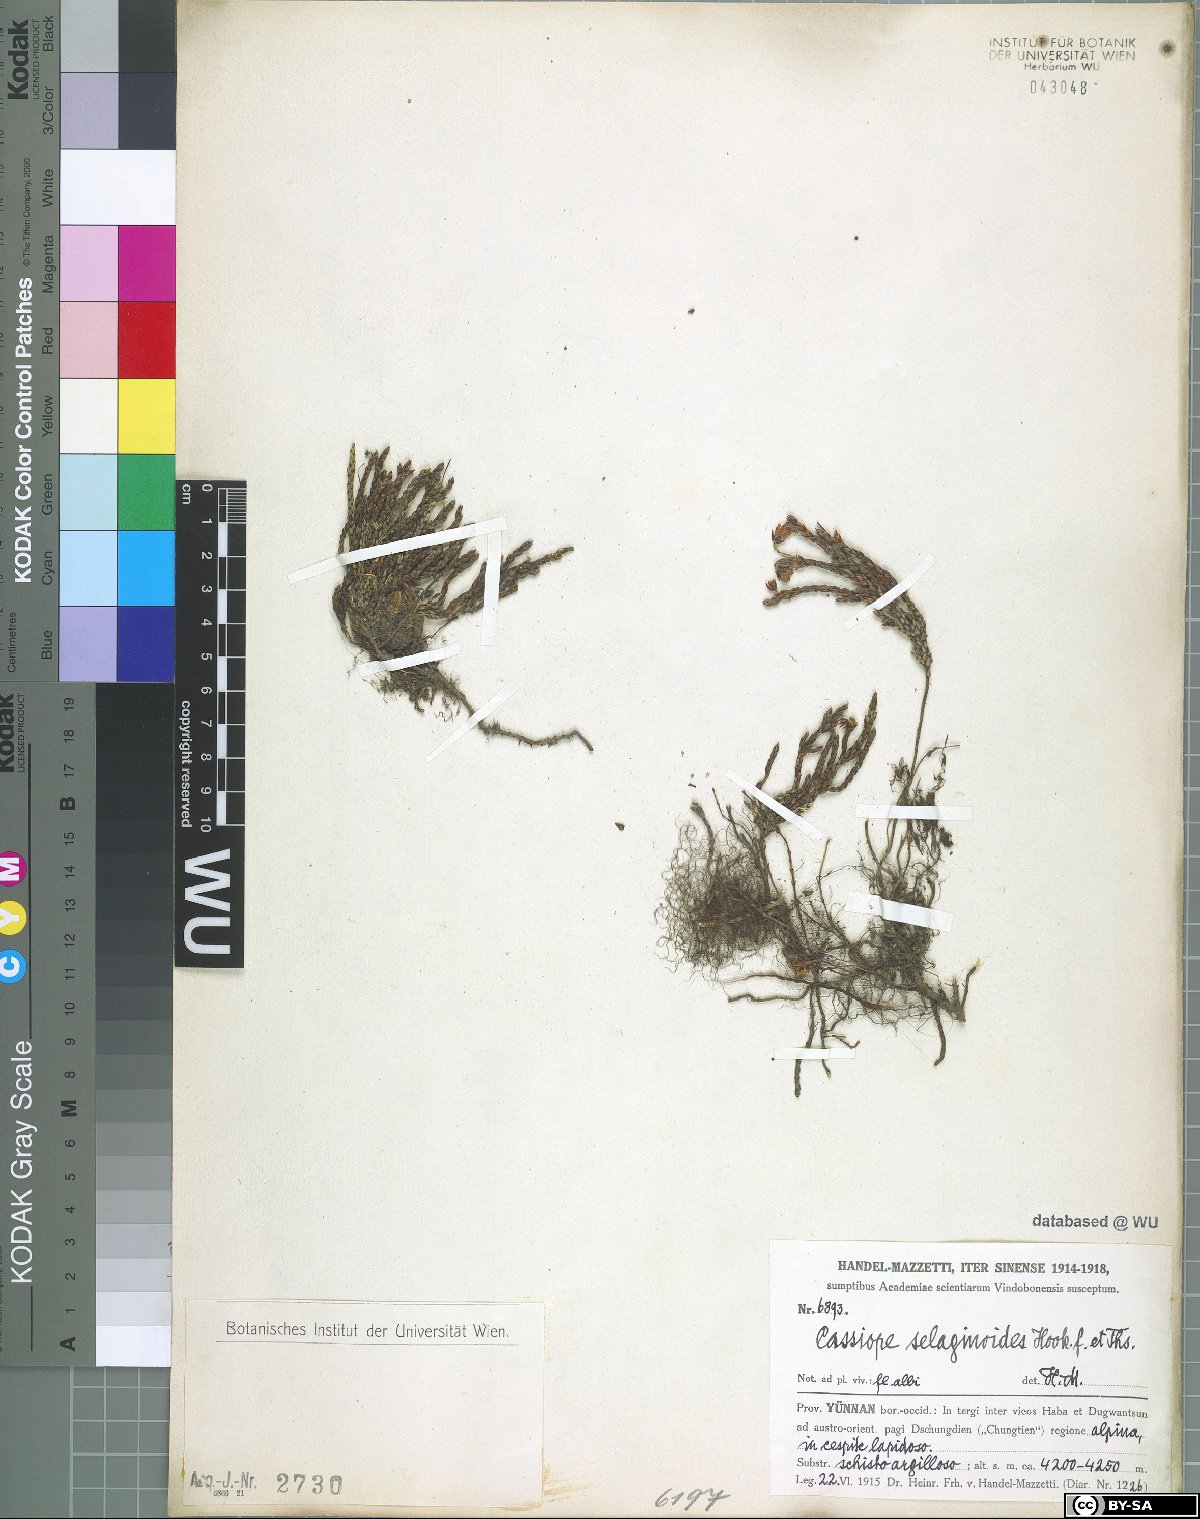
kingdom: Plantae
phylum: Tracheophyta
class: Magnoliopsida
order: Ericales
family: Ericaceae
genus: Cassiope
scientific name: Cassiope selaginoides
